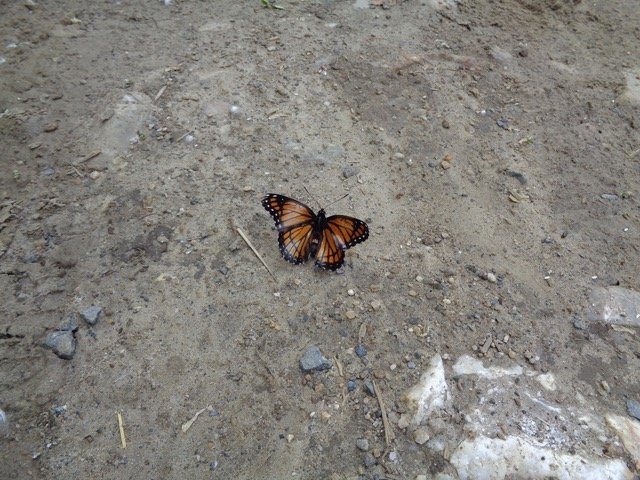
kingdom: Animalia
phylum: Arthropoda
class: Insecta
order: Lepidoptera
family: Nymphalidae
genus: Limenitis
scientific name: Limenitis archippus
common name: Viceroy
